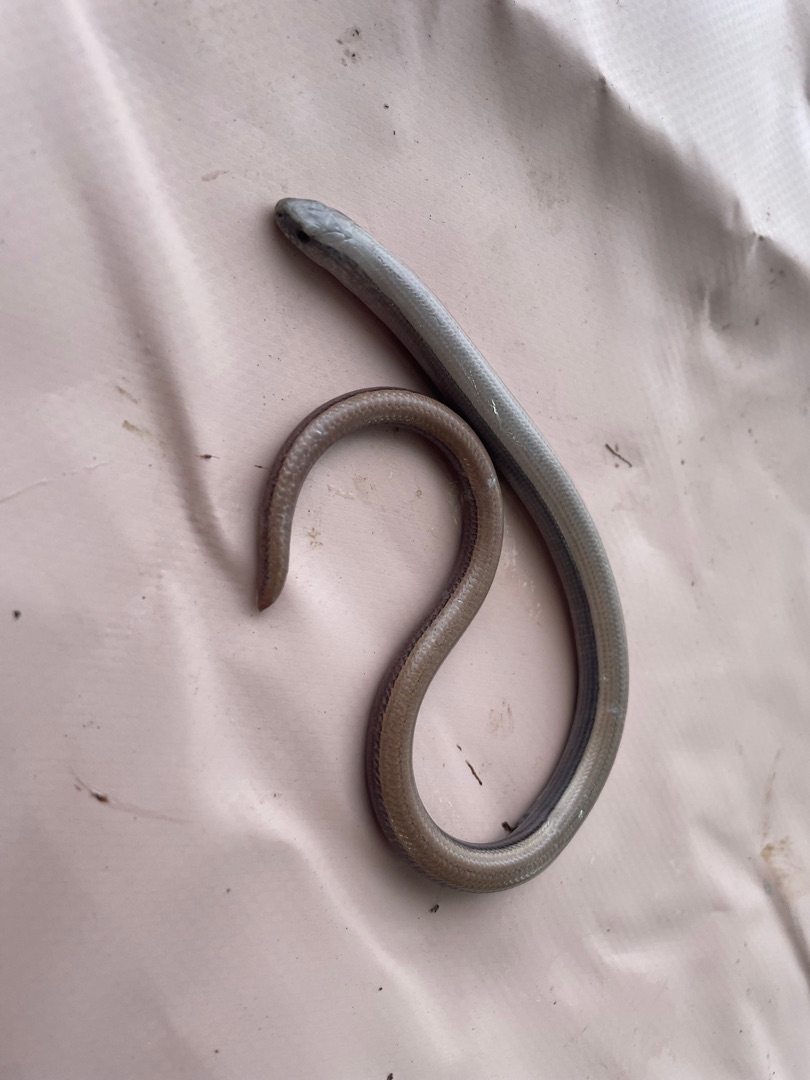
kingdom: Animalia
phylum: Chordata
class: Squamata
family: Anguidae
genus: Anguis
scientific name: Anguis fragilis
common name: Stålorm
